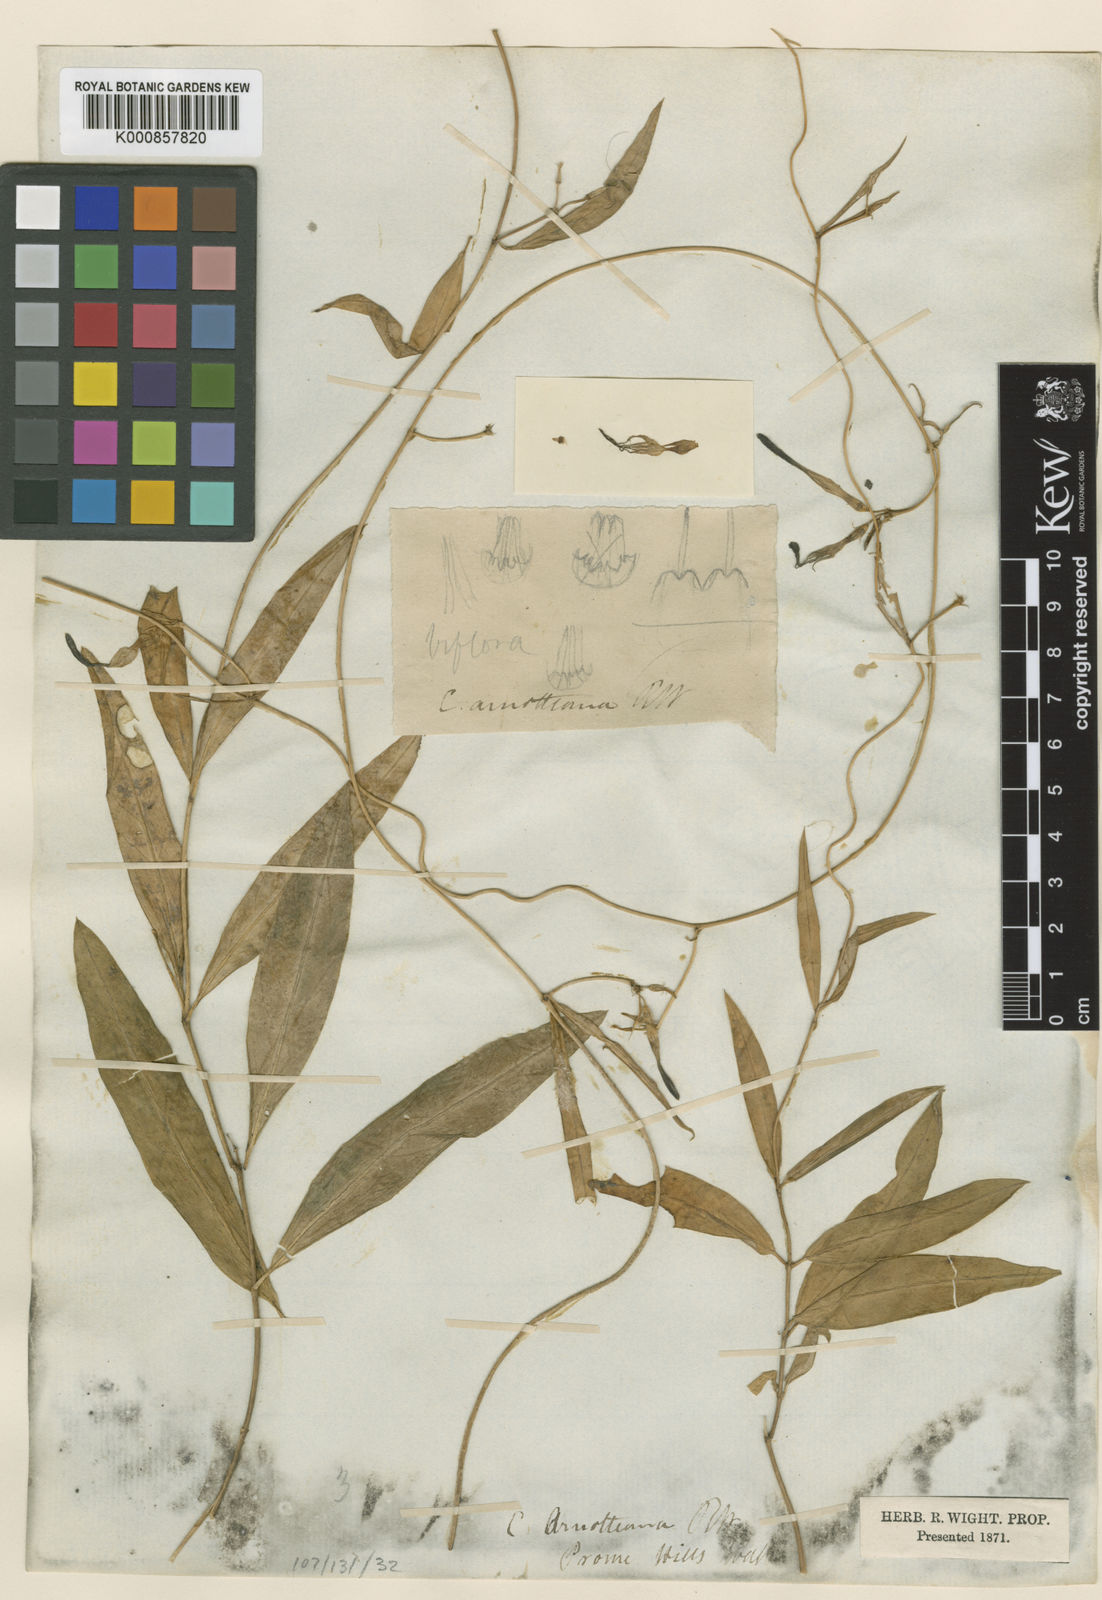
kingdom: Plantae
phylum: Tracheophyta
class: Magnoliopsida
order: Gentianales
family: Apocynaceae
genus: Ceropegia
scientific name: Ceropegia arnottiana
